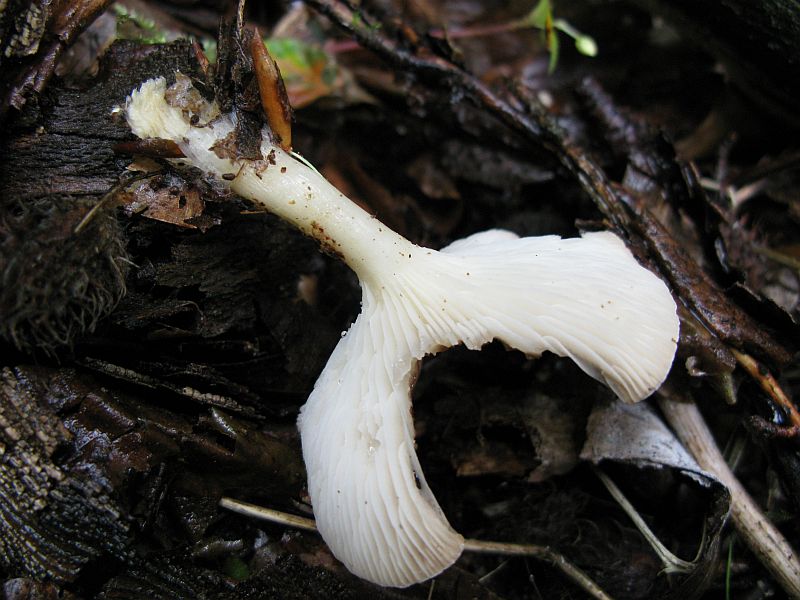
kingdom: Fungi
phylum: Basidiomycota
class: Agaricomycetes
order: Agaricales
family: Tricholomataceae
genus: Infundibulicybe
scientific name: Infundibulicybe gibba
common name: almindelig tragthat
